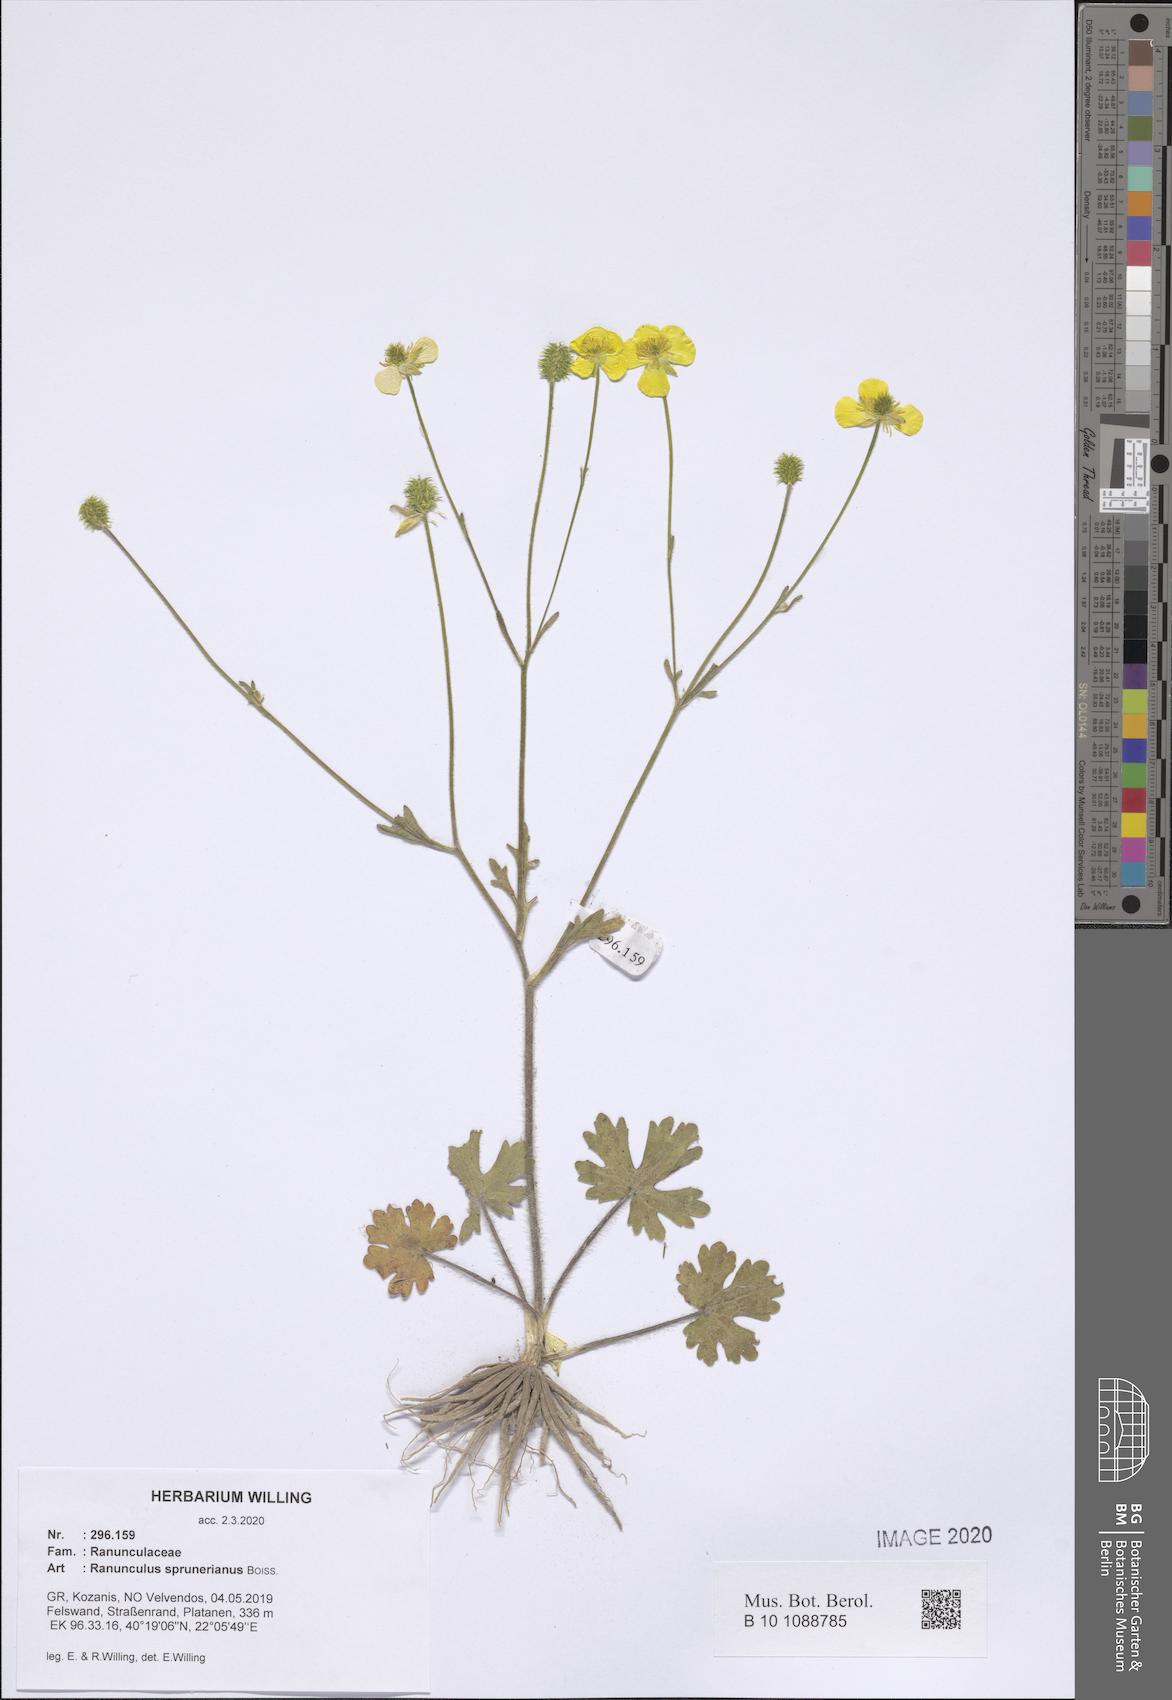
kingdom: Plantae
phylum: Tracheophyta
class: Magnoliopsida
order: Ranunculales
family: Ranunculaceae
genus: Ranunculus
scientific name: Ranunculus sprunerianus
